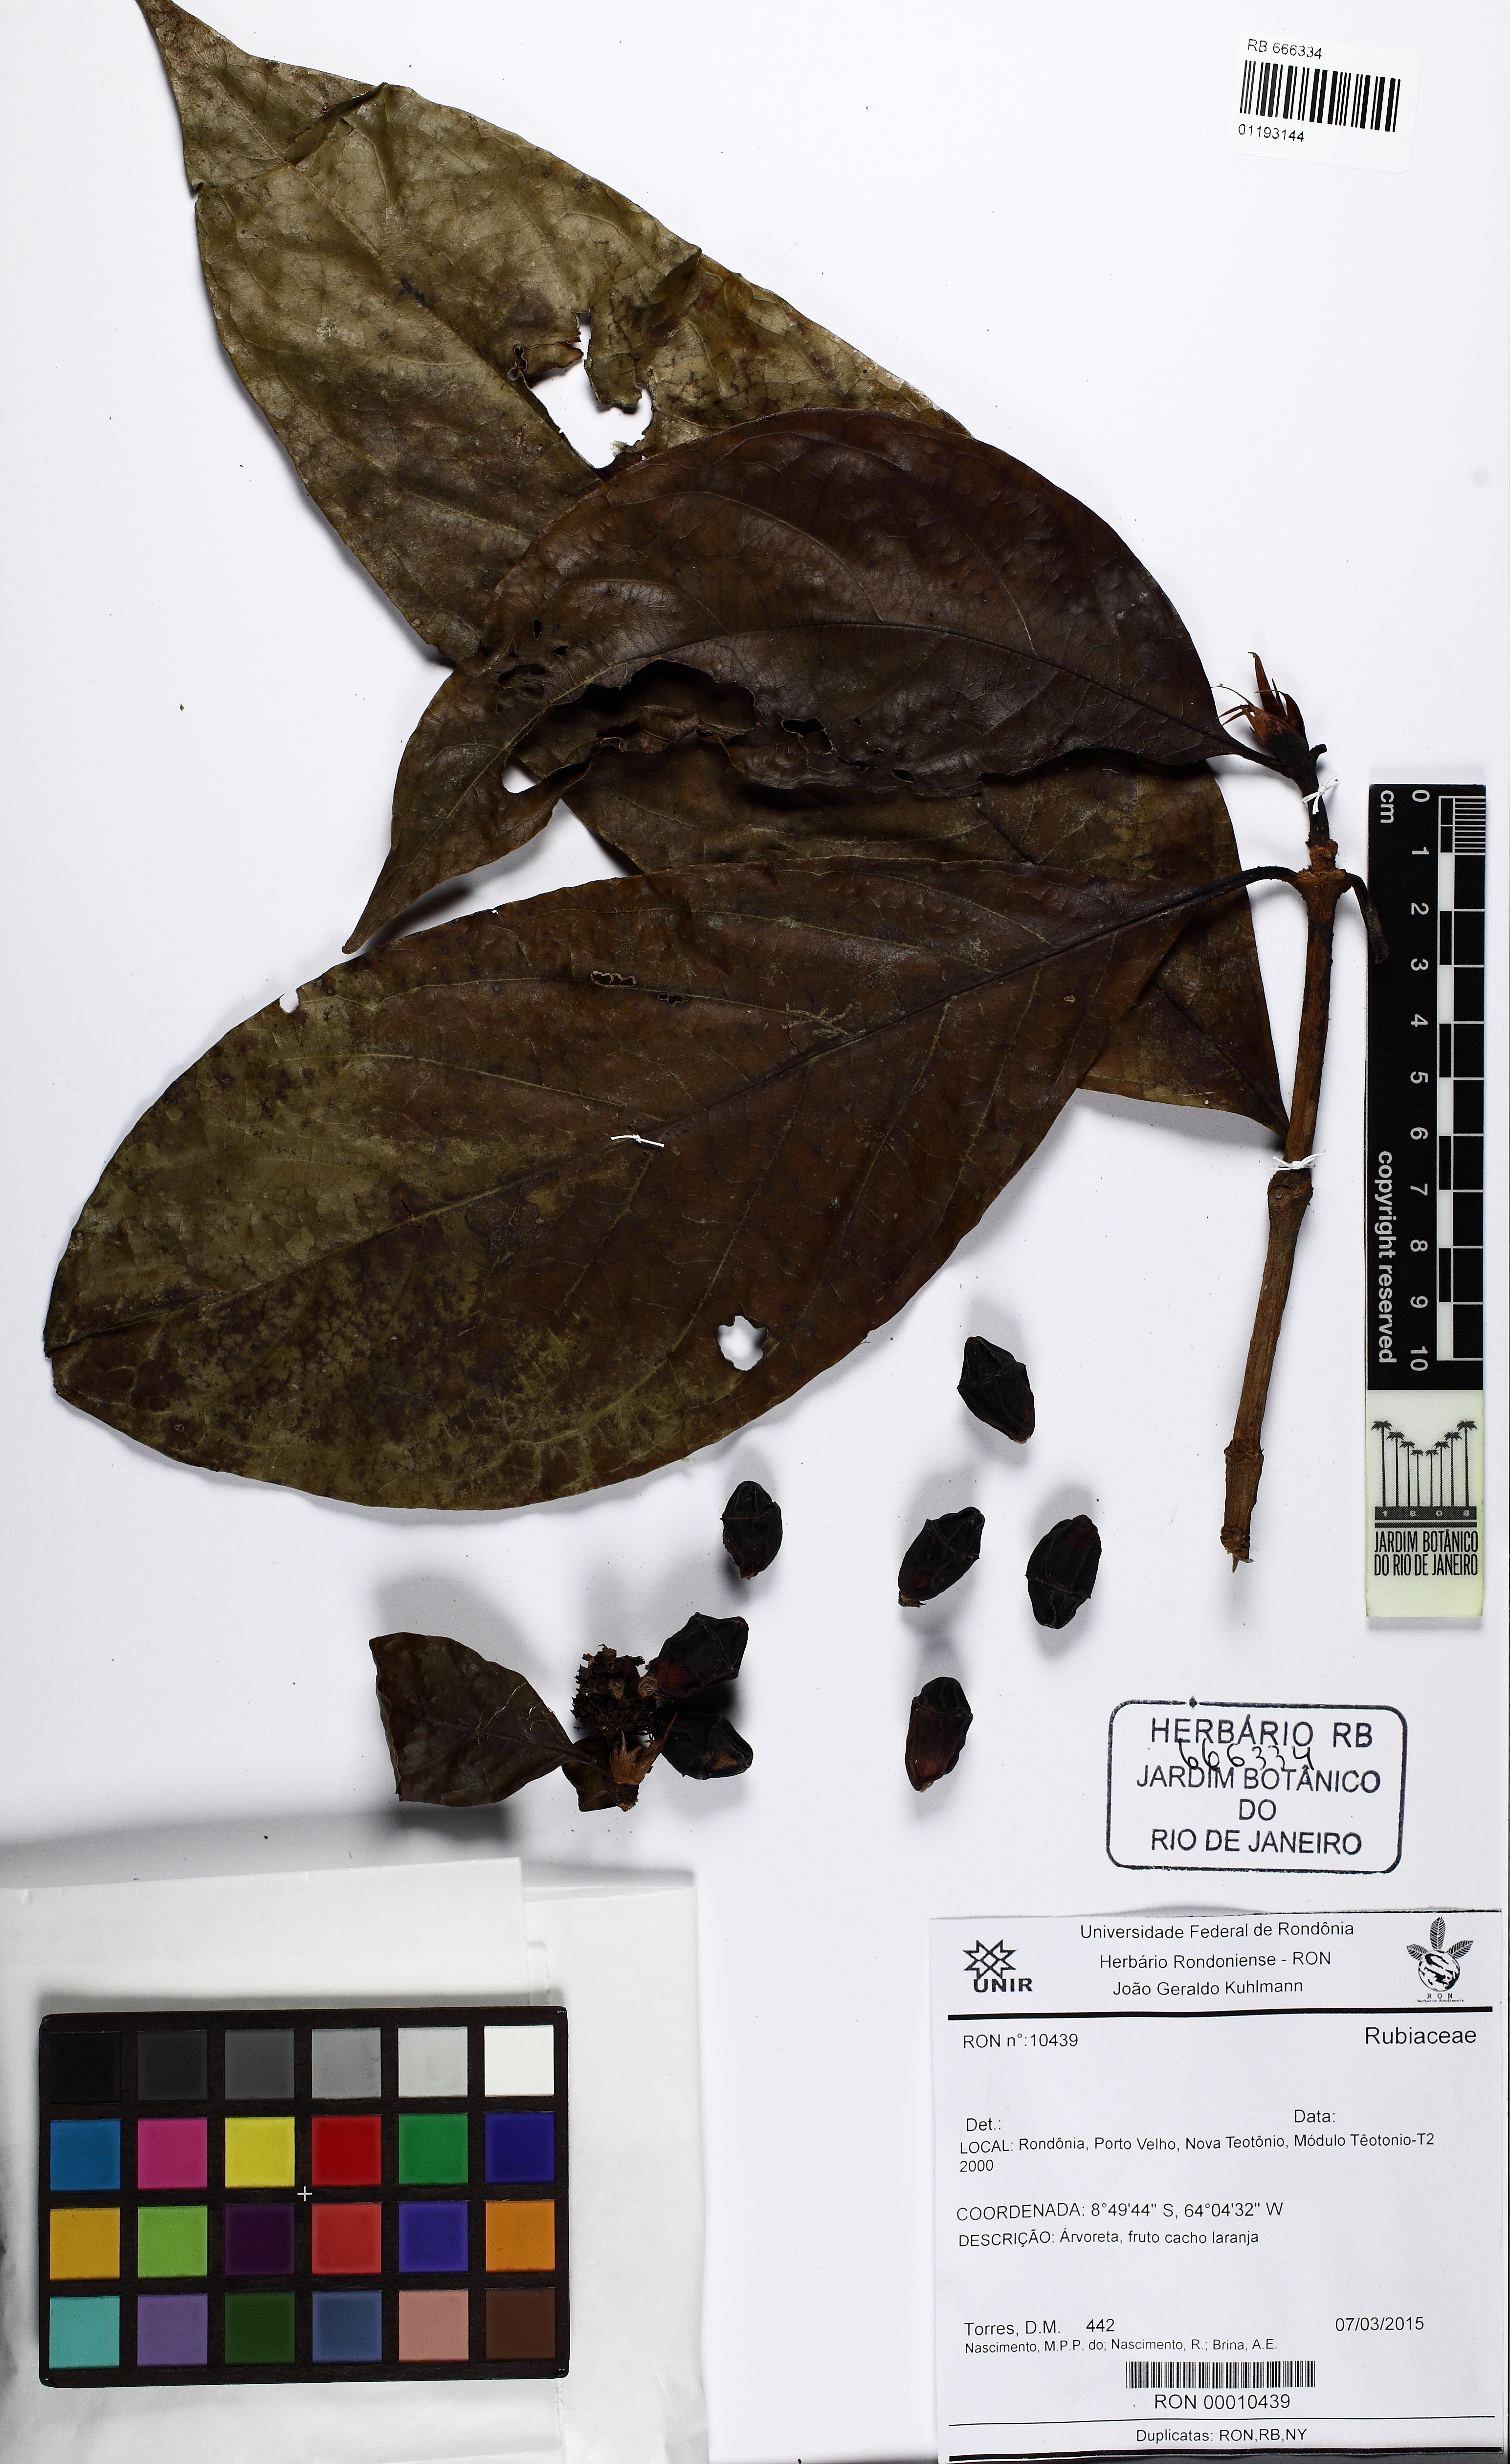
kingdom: Plantae
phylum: Tracheophyta
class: Magnoliopsida
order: Gentianales
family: Rubiaceae
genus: Rudgea
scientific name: Rudgea lanceifolia
